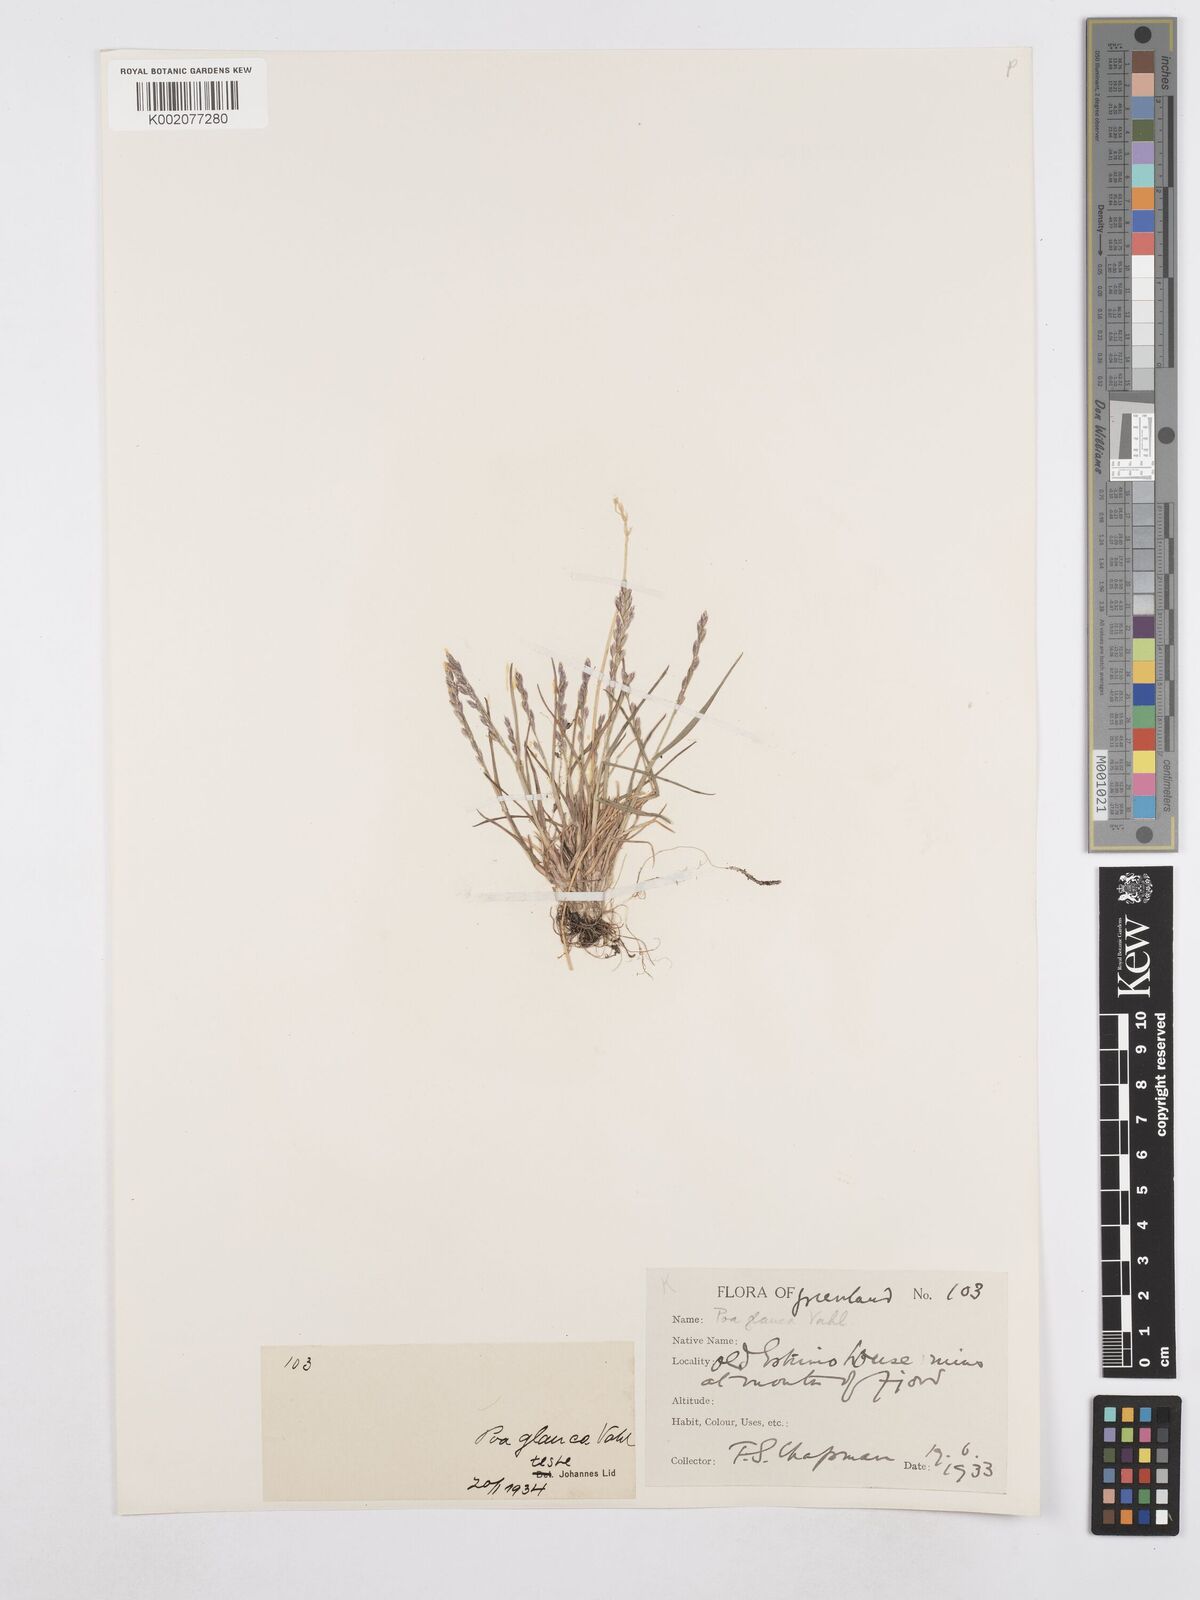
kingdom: Plantae
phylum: Tracheophyta
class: Liliopsida
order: Poales
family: Poaceae
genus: Poa
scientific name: Poa glauca
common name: Glaucous bluegrass
